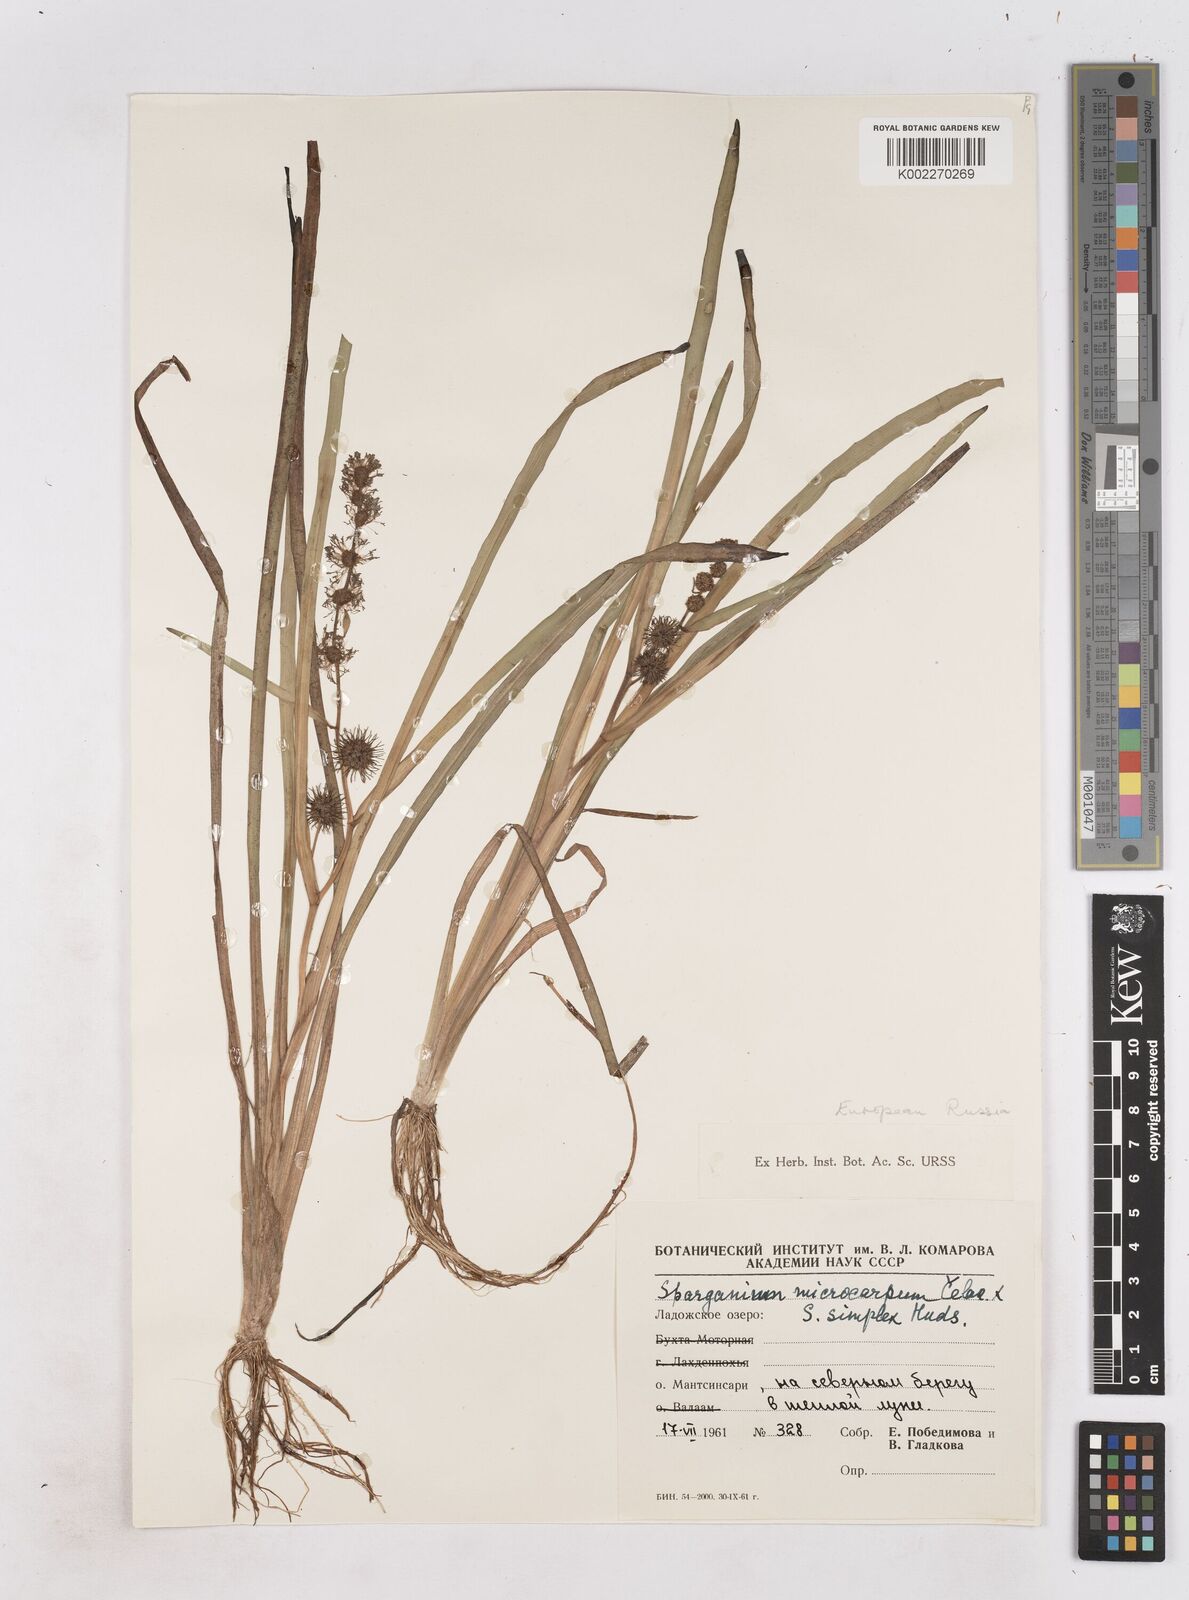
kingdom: Plantae
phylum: Tracheophyta
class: Liliopsida
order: Poales
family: Typhaceae
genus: Sparganium
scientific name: Sparganium emersum
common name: Unbranched bur-reed
